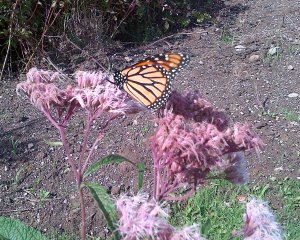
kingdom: Animalia
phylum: Arthropoda
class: Insecta
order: Lepidoptera
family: Nymphalidae
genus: Danaus
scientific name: Danaus plexippus
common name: Monarch
